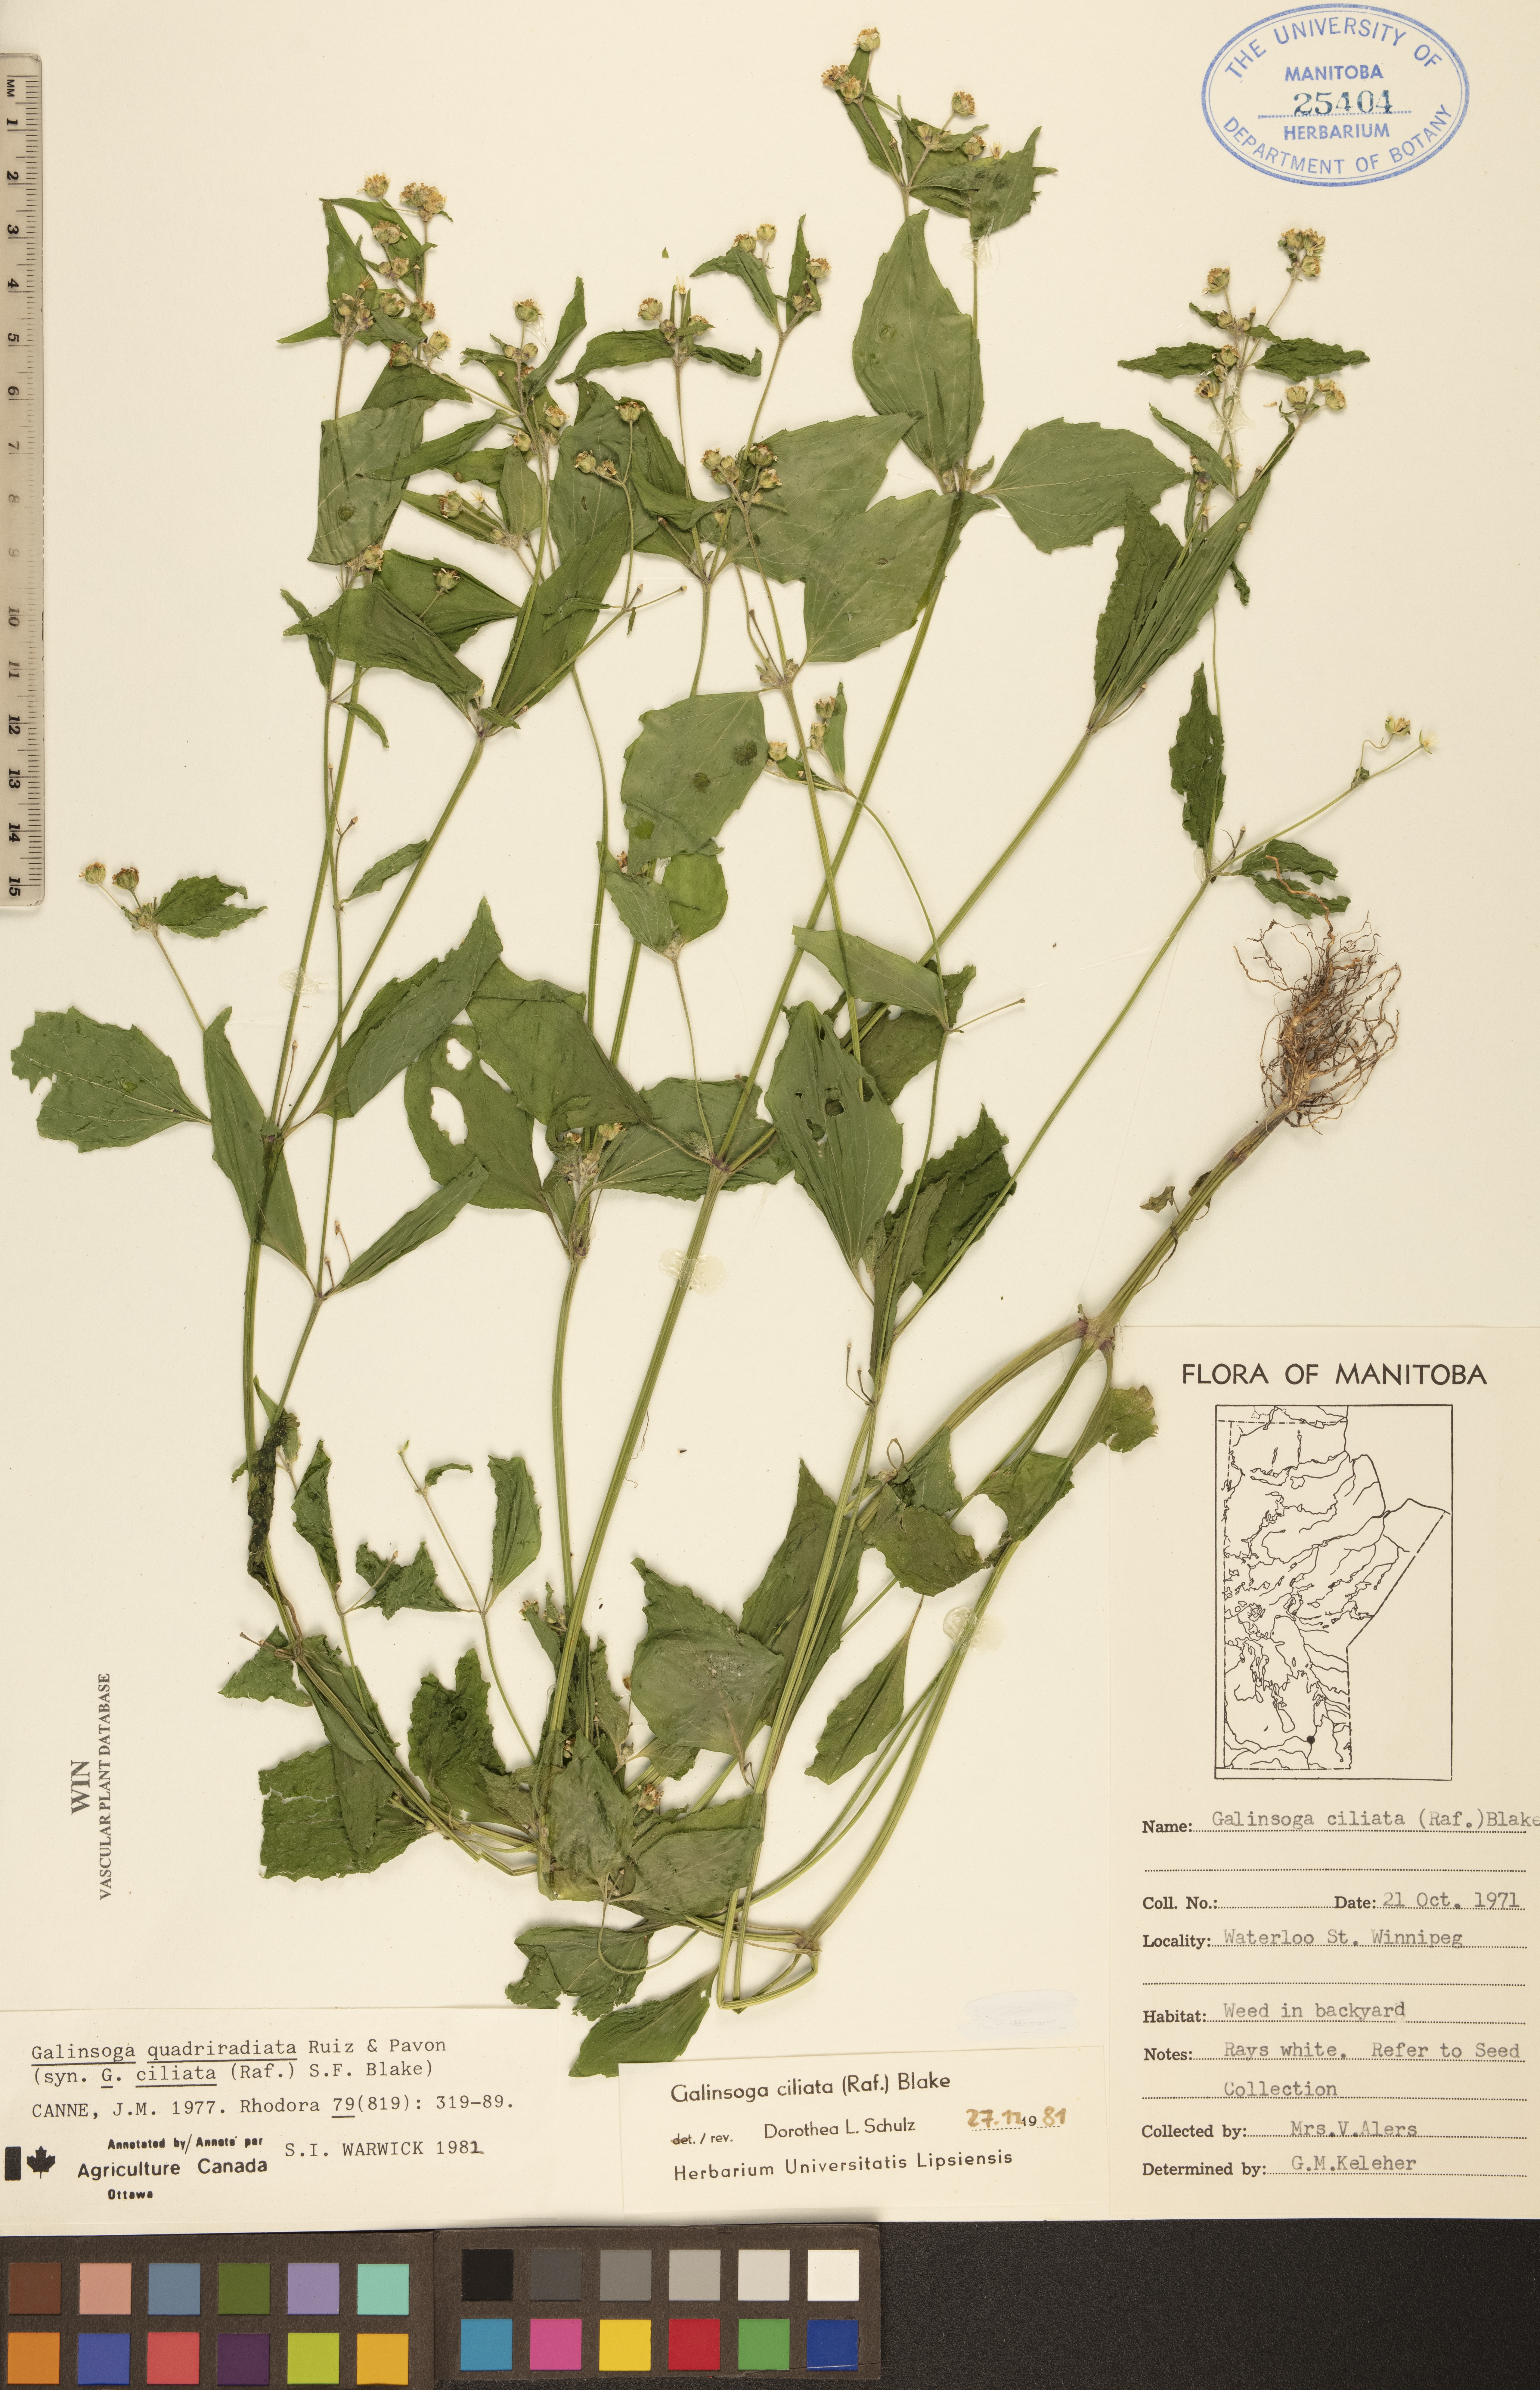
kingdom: Plantae
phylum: Tracheophyta
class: Magnoliopsida
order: Asterales
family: Asteraceae
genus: Galinsoga
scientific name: Galinsoga quadriradiata
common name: Shaggy soldier
